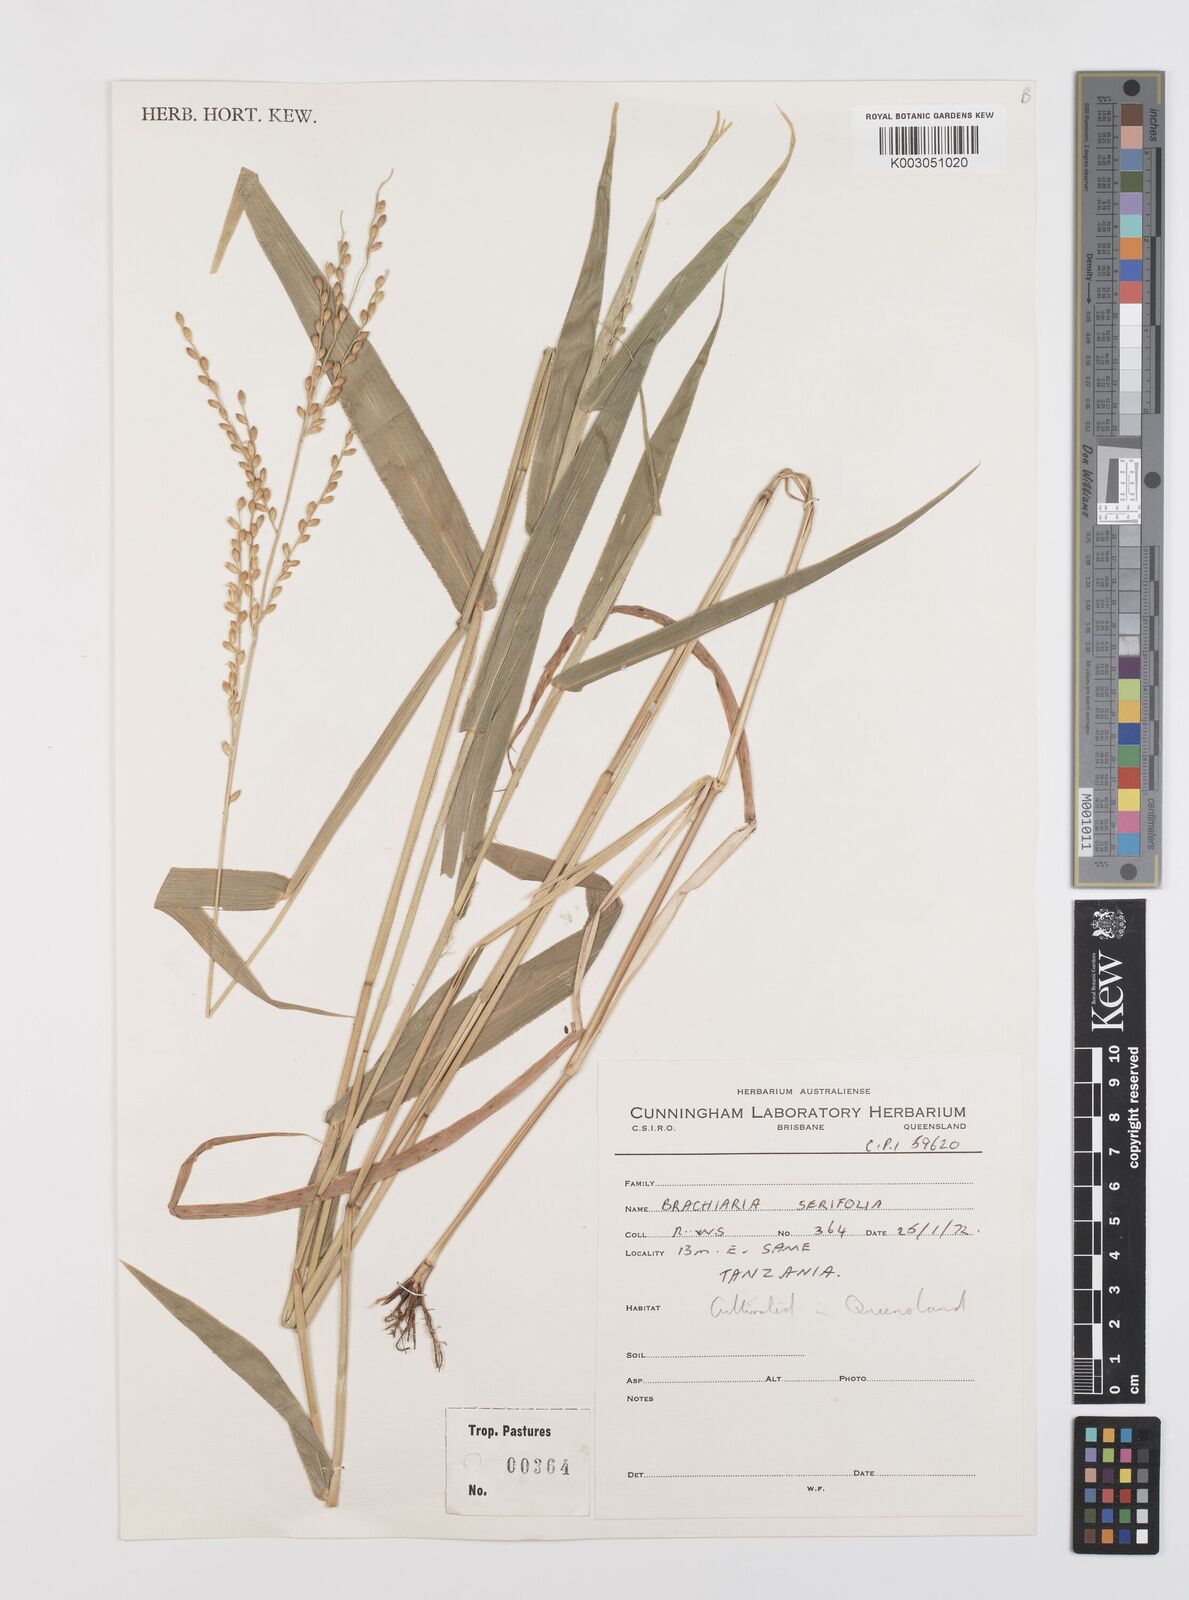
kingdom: Plantae
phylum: Tracheophyta
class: Liliopsida
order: Poales
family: Poaceae
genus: Urochloa
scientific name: Urochloa serrifolia
